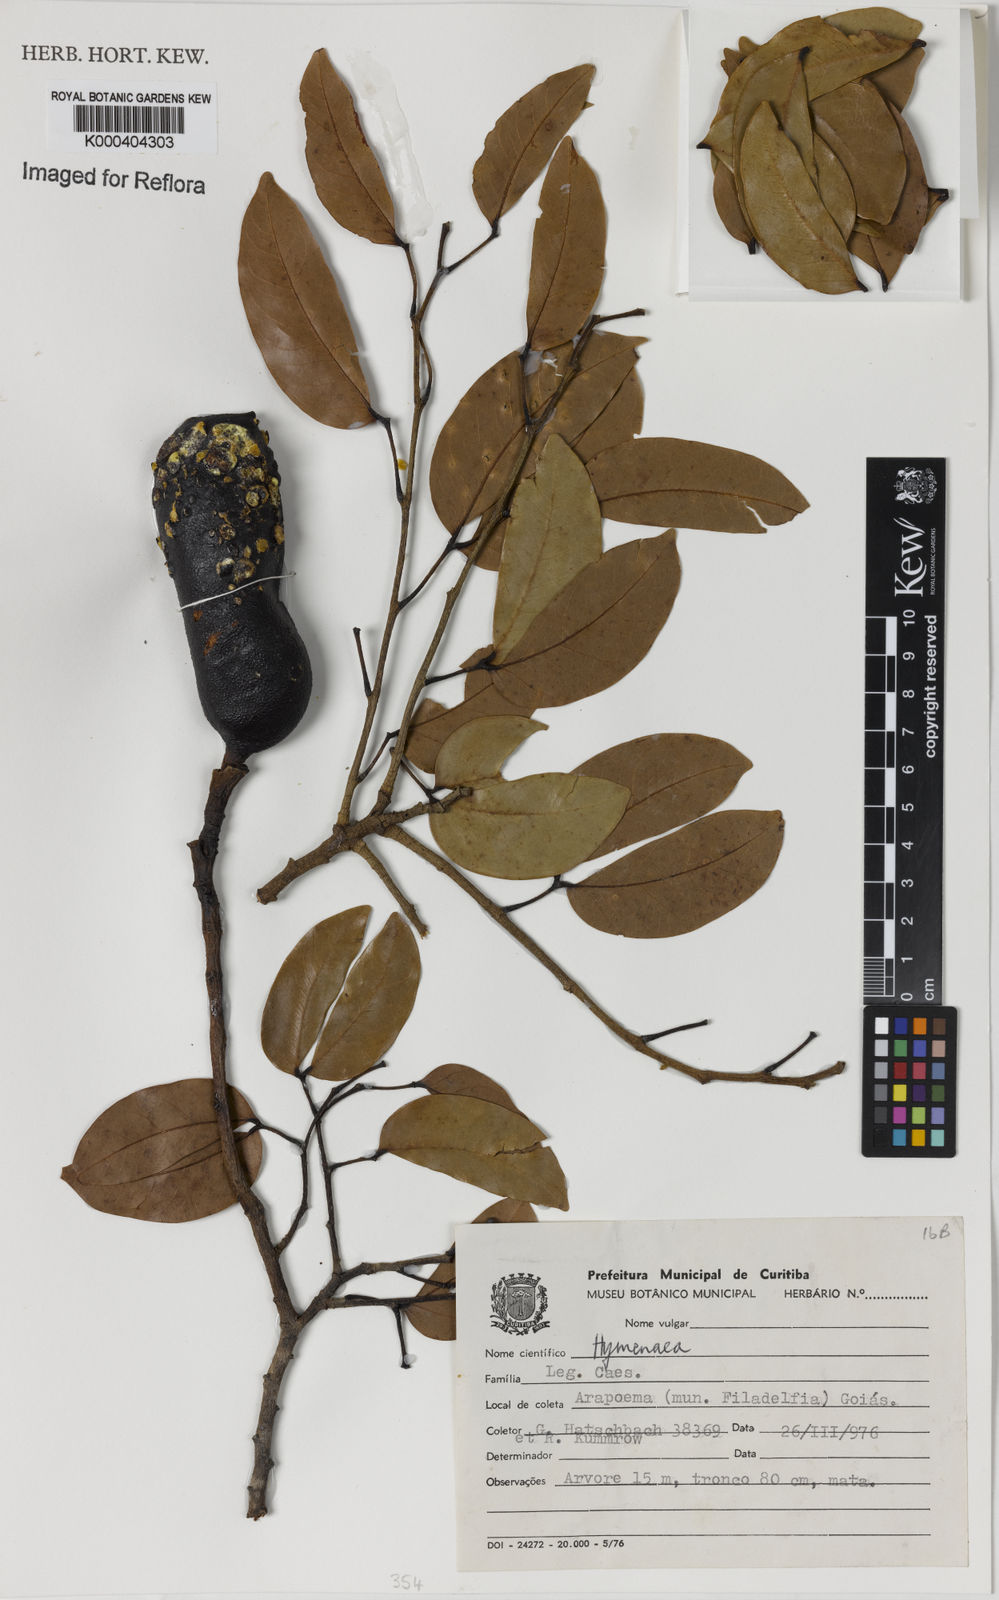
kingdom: Plantae
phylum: Tracheophyta
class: Magnoliopsida
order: Fabales
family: Fabaceae
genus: Hymenaea
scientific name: Hymenaea
